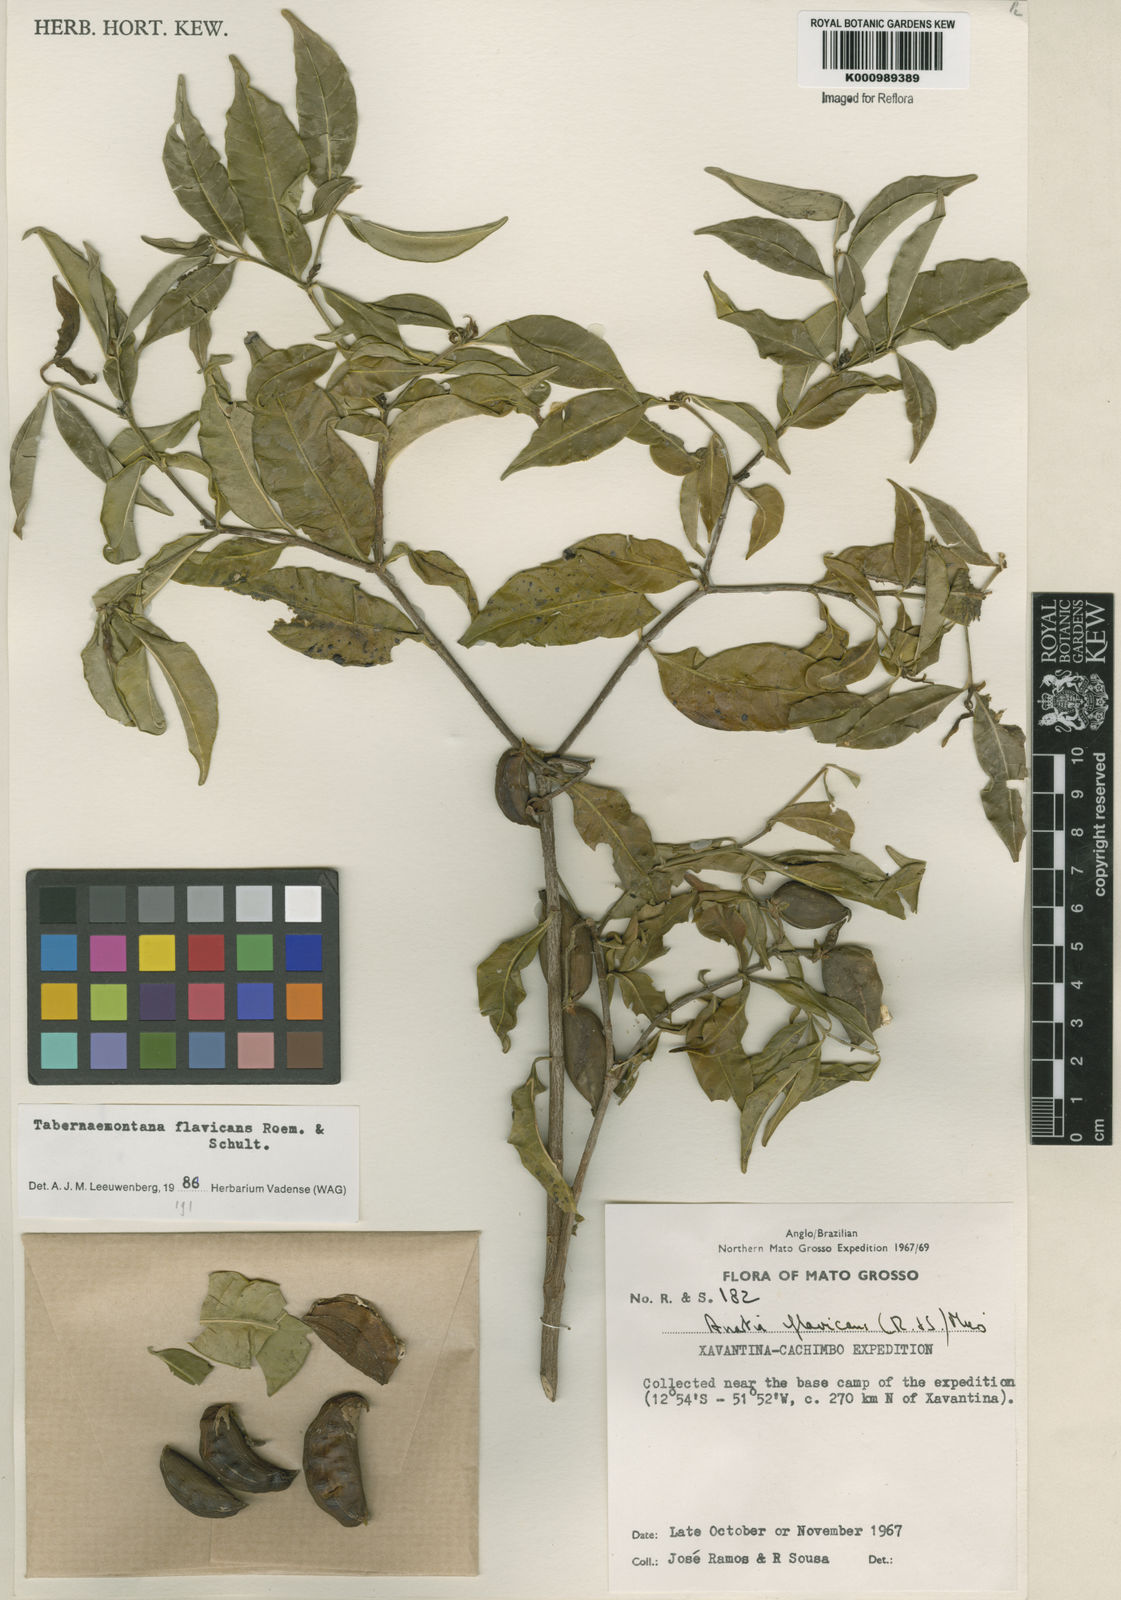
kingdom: Plantae
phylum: Tracheophyta
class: Magnoliopsida
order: Gentianales
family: Apocynaceae
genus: Tabernaemontana
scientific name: Tabernaemontana flavicans
